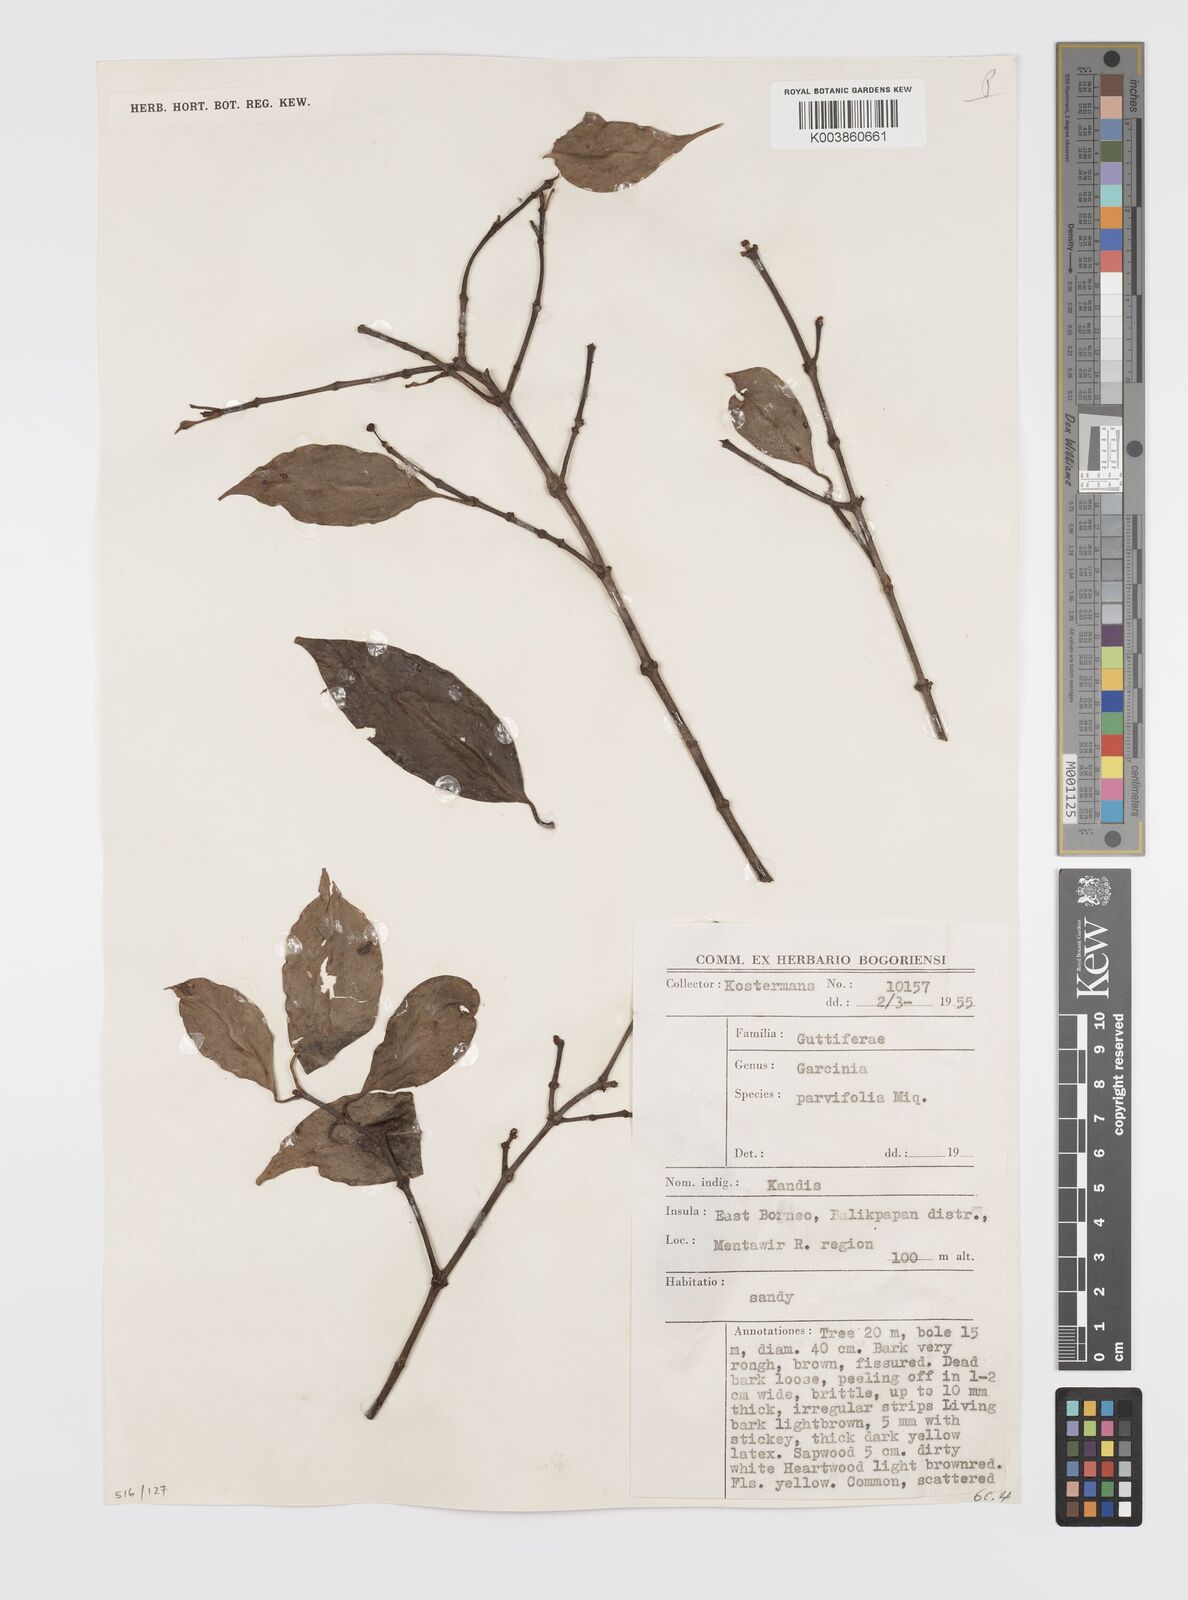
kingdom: Plantae
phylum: Tracheophyta
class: Magnoliopsida
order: Malpighiales
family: Clusiaceae
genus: Garcinia
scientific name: Garcinia parvifolia
